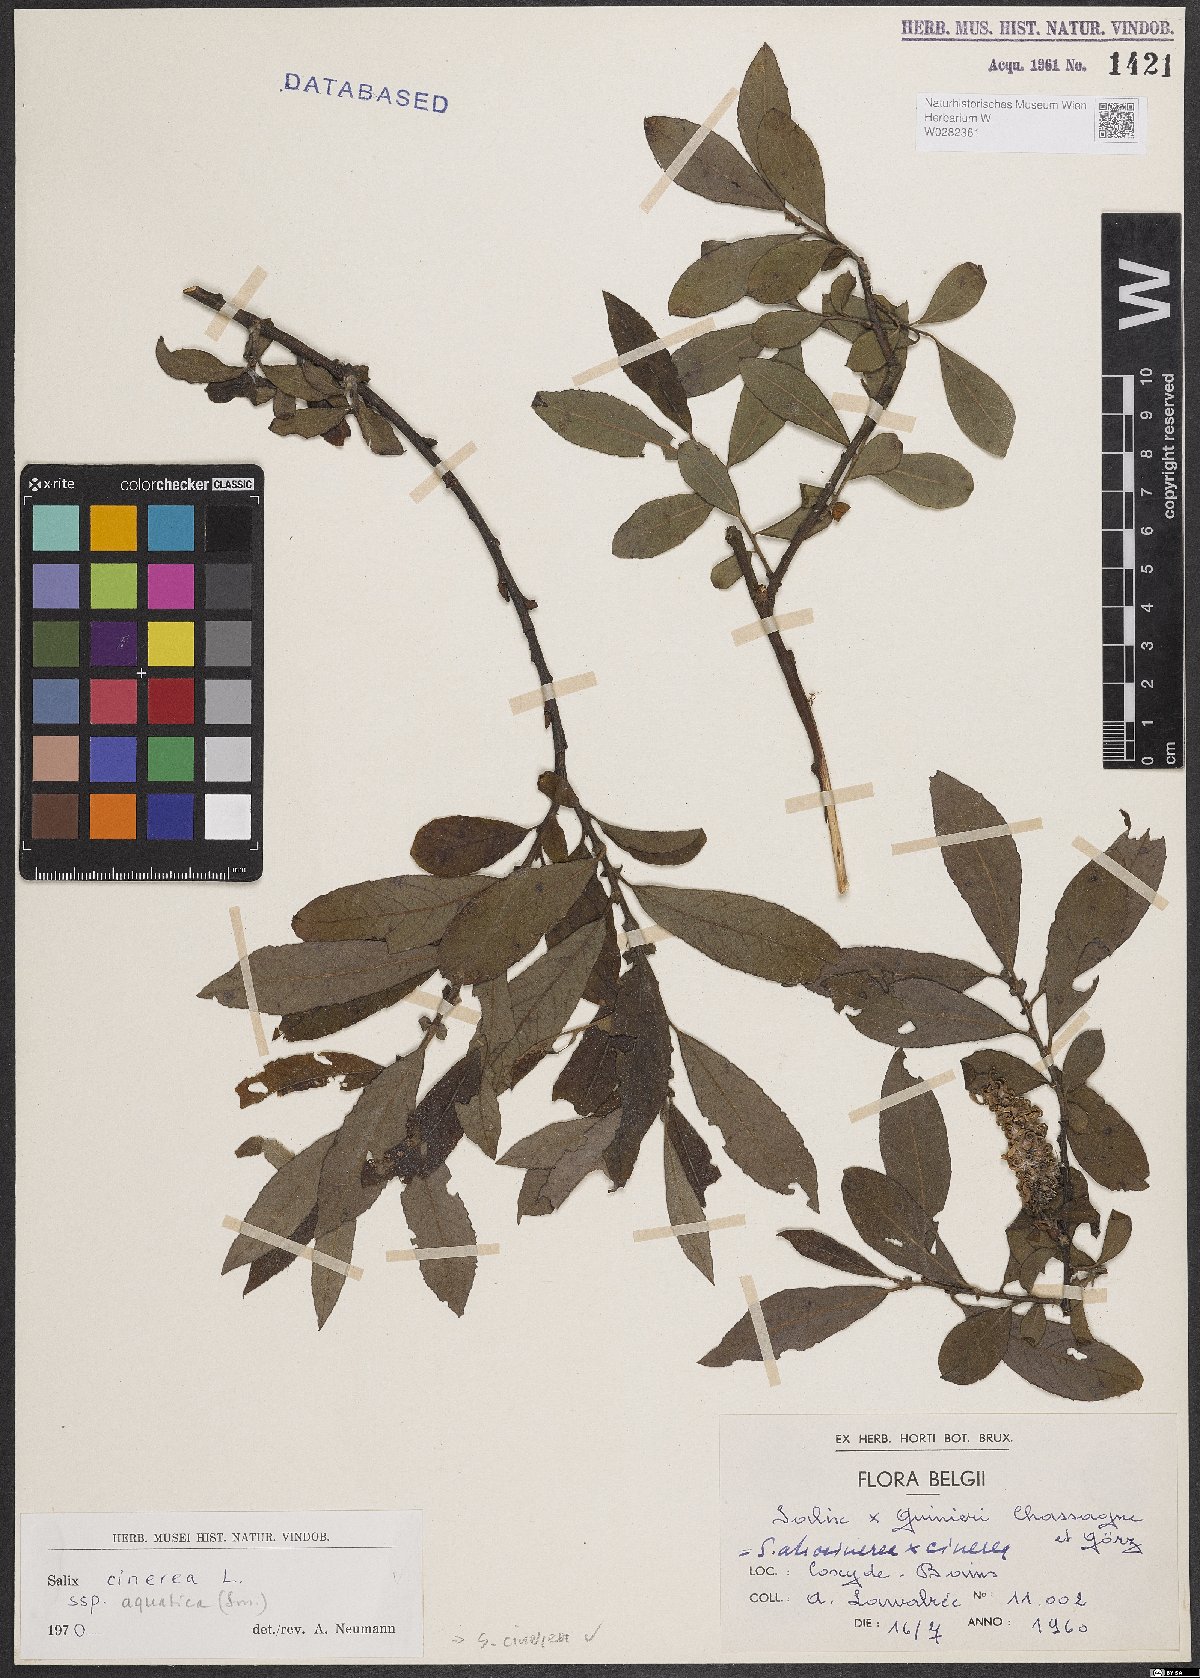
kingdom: Plantae
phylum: Tracheophyta
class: Magnoliopsida
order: Malpighiales
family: Salicaceae
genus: Salix
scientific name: Salix cinerea
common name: Common sallow
